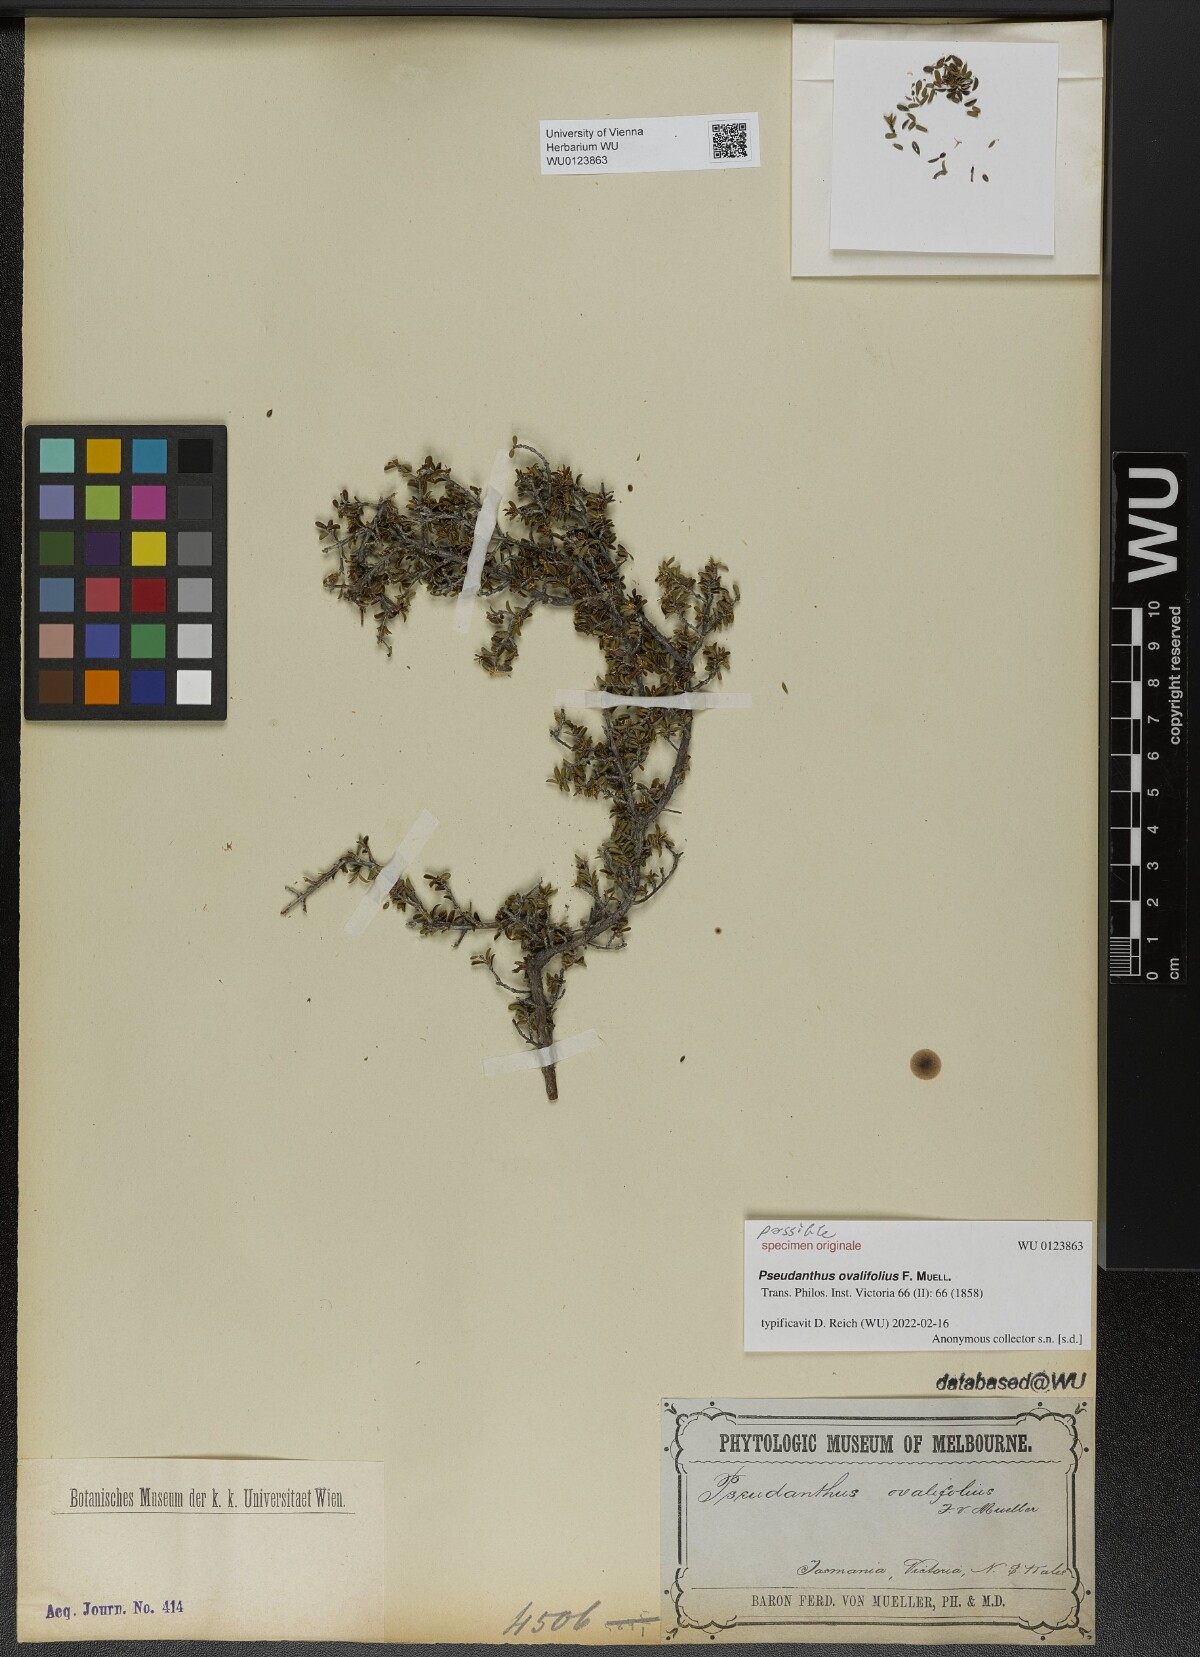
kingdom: Plantae
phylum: Tracheophyta
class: Magnoliopsida
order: Malpighiales
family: Picrodendraceae
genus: Pseudanthus
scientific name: Pseudanthus ovalifolius
